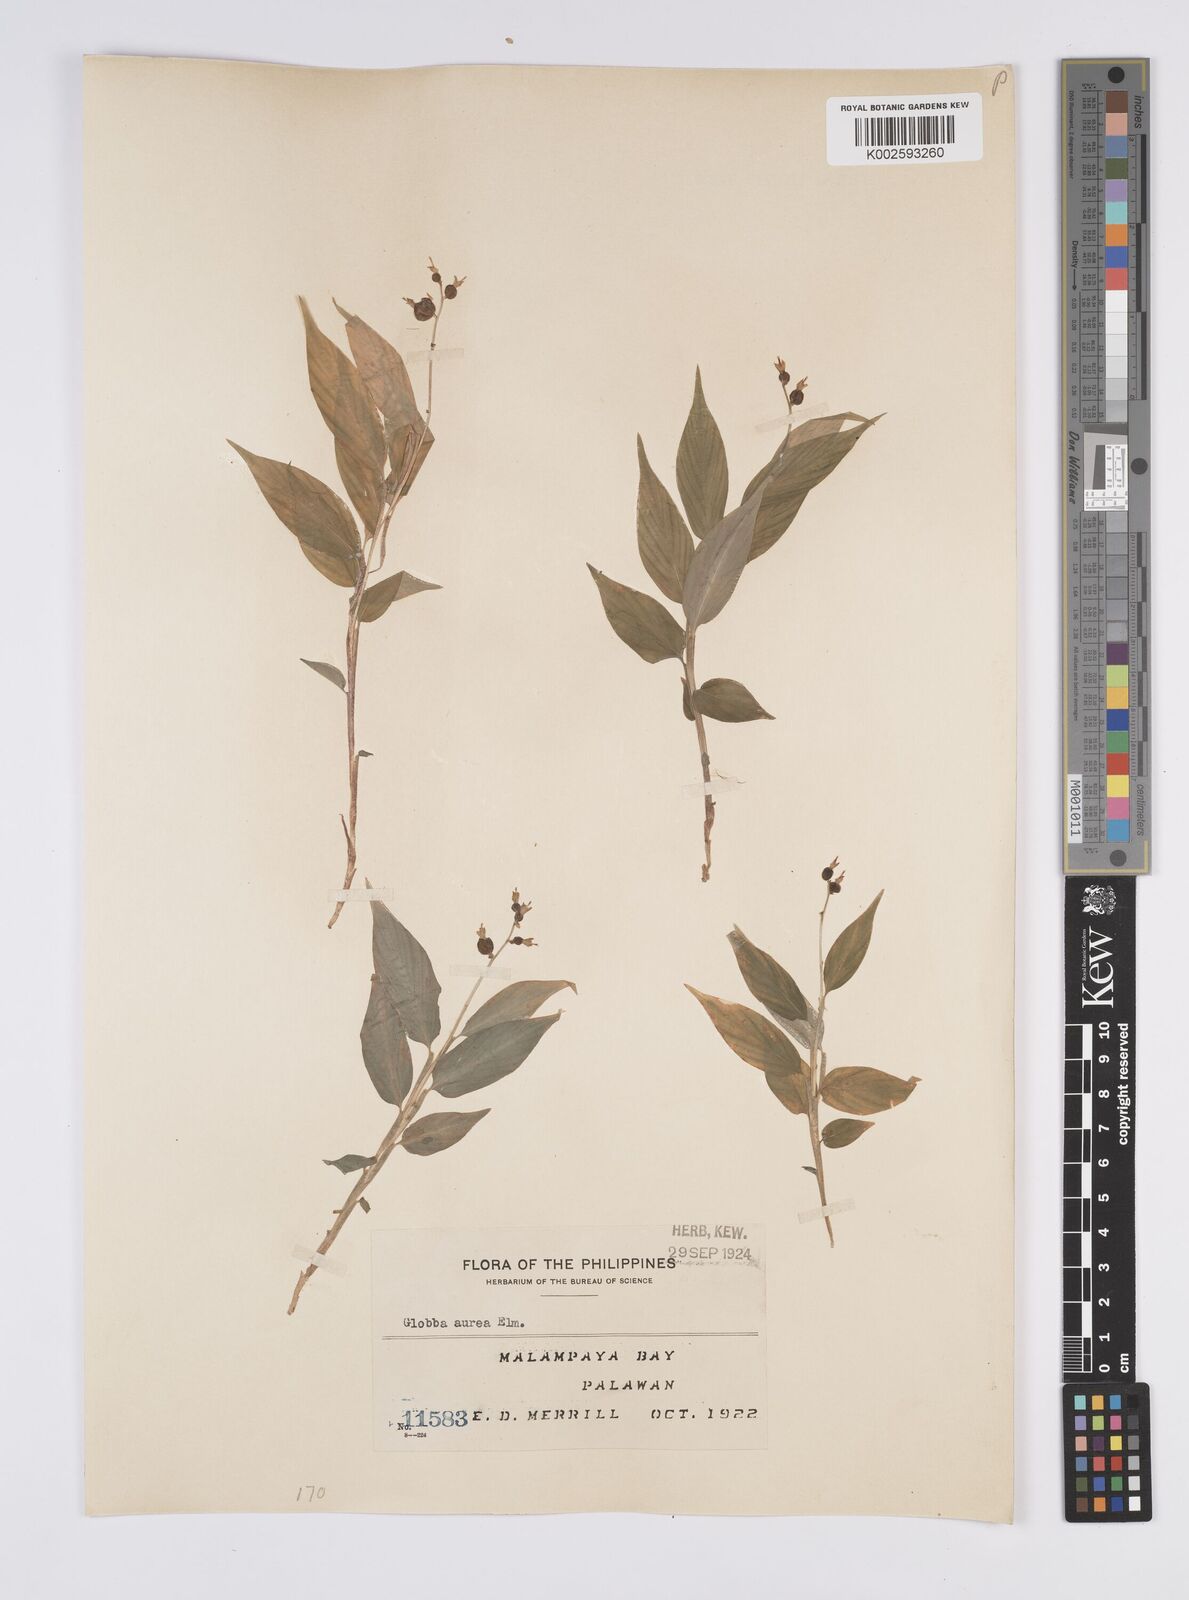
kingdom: Plantae
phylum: Tracheophyta
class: Liliopsida
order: Zingiberales
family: Zingiberaceae
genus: Globba
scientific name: Globba aurea
